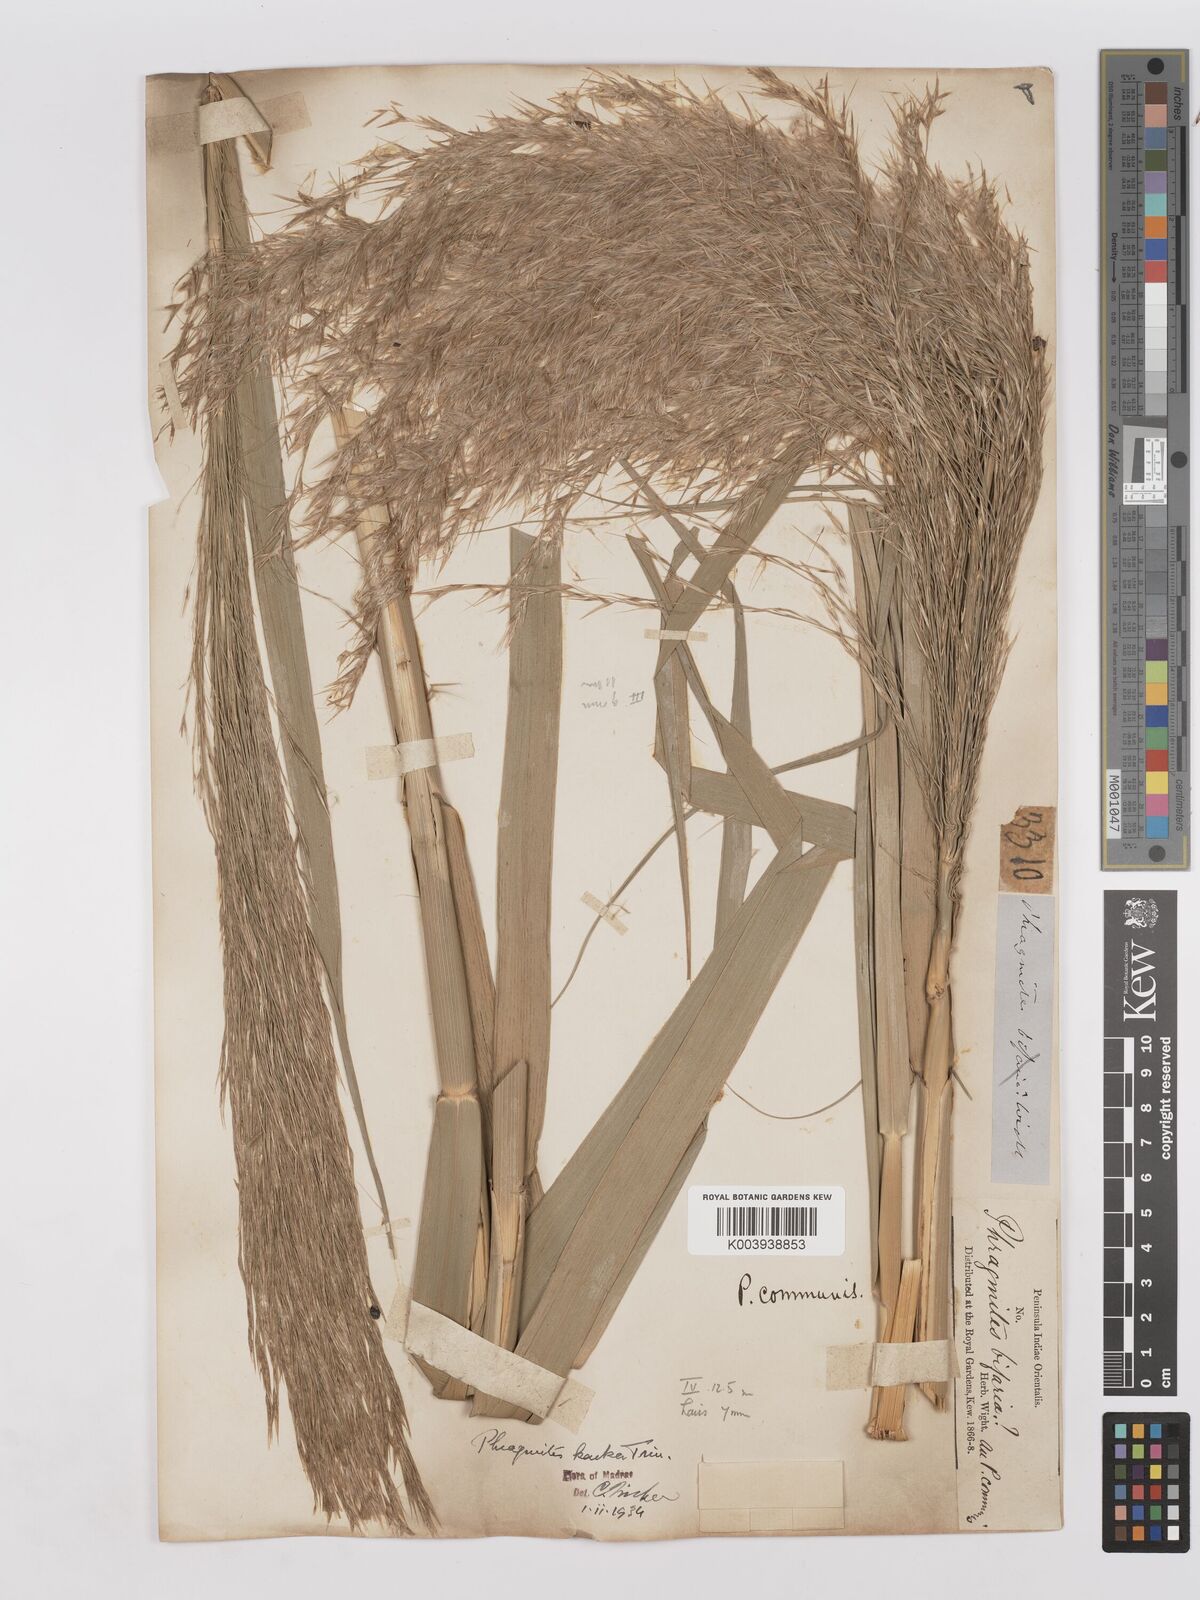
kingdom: Plantae
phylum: Tracheophyta
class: Liliopsida
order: Poales
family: Poaceae
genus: Phragmites
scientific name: Phragmites karka
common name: Tropical reed
